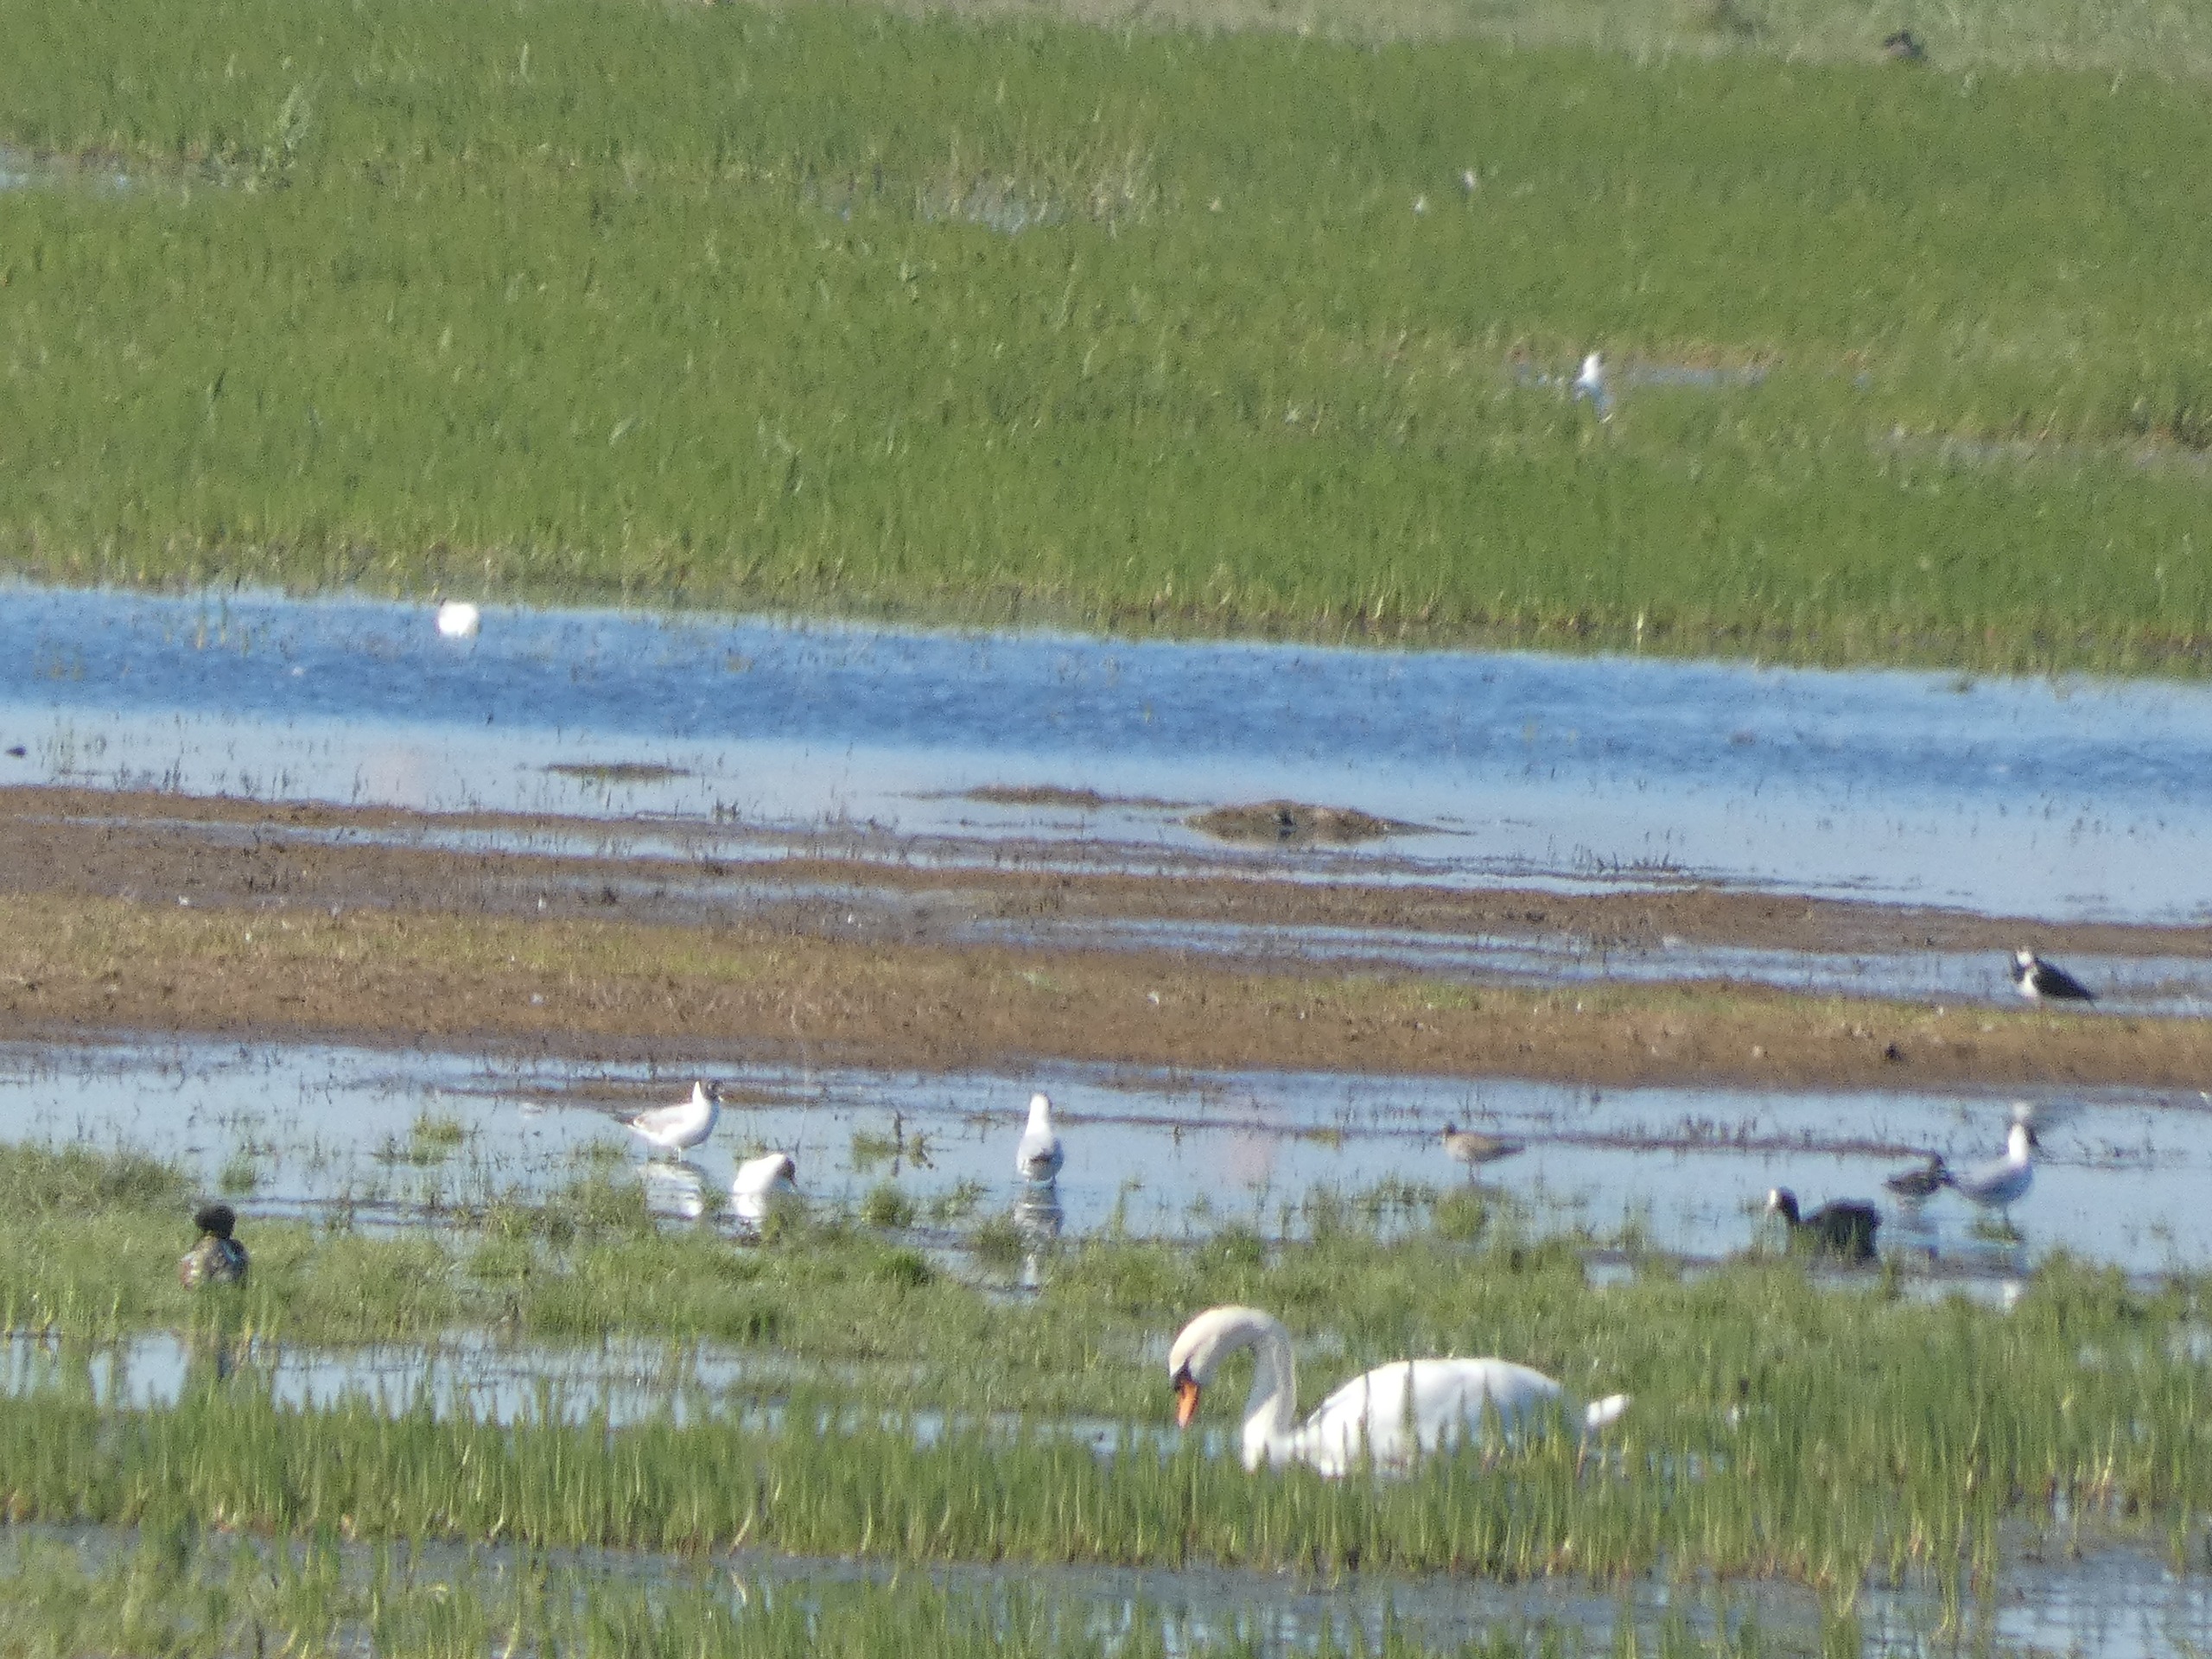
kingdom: Animalia
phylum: Chordata
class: Aves
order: Anseriformes
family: Anatidae
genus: Cygnus
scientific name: Cygnus olor
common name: Knopsvane
